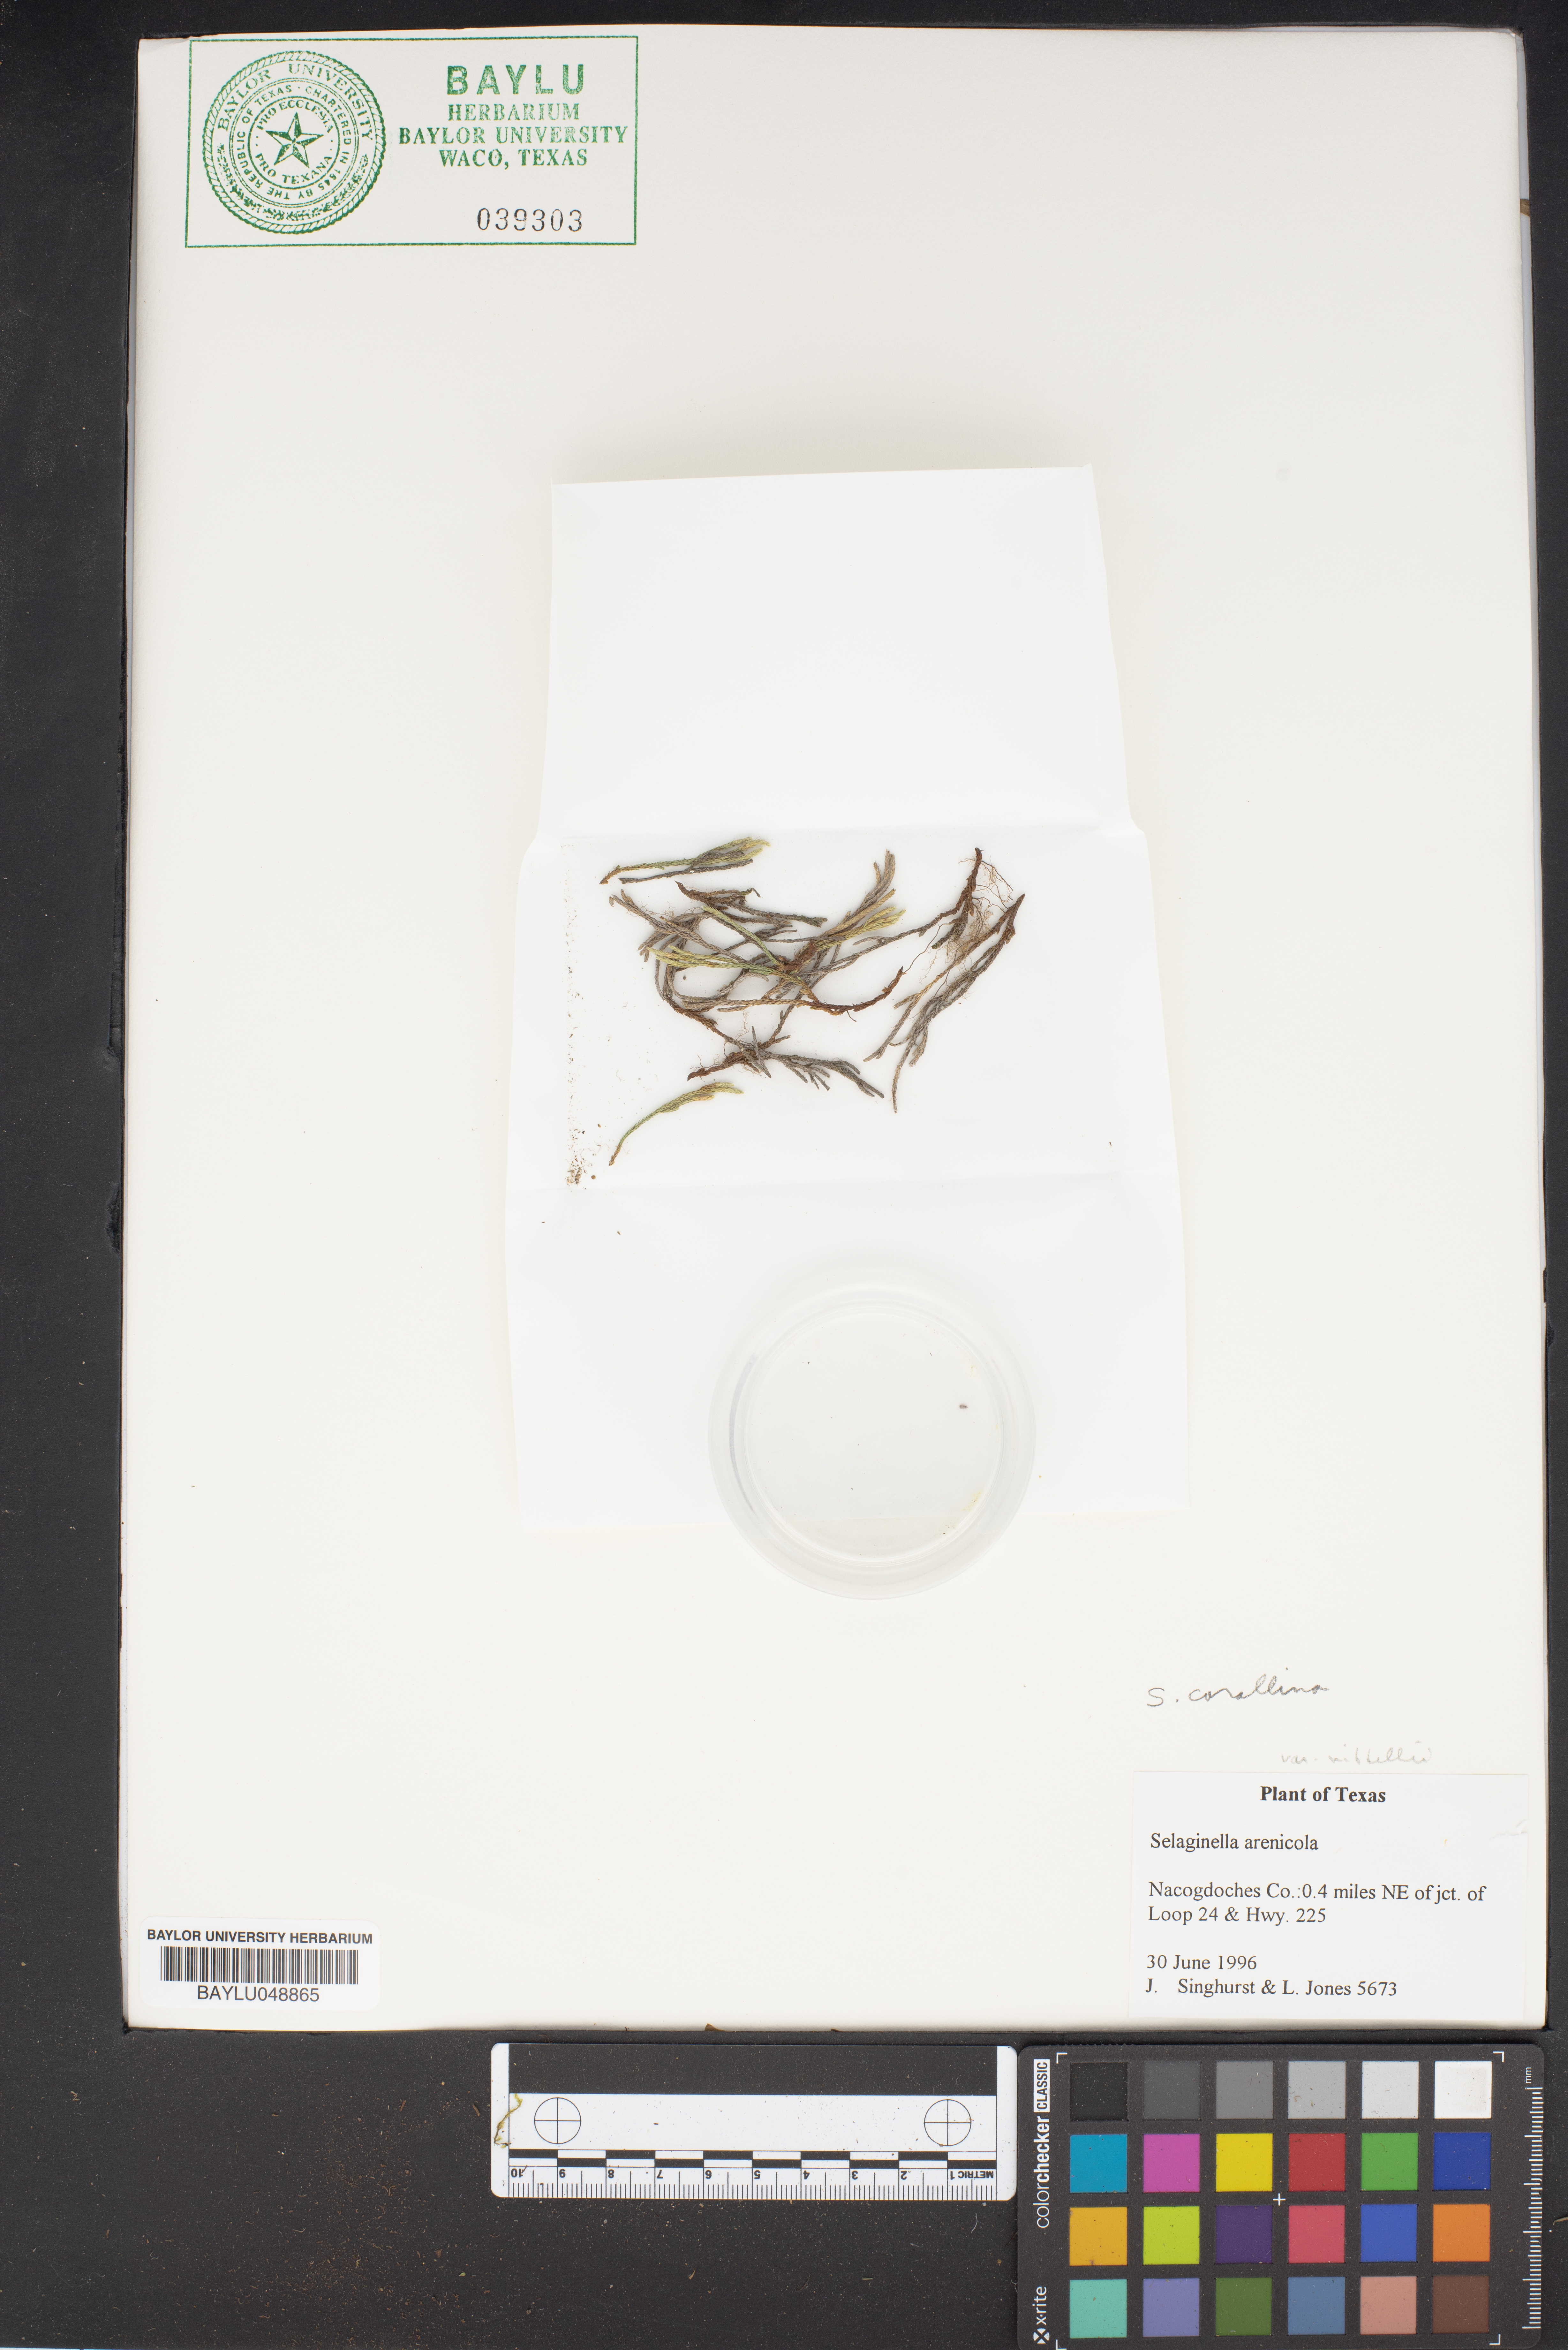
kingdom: Plantae
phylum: Tracheophyta
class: Lycopodiopsida
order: Selaginellales
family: Selaginellaceae
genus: Selaginella
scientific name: Selaginella arenaria
